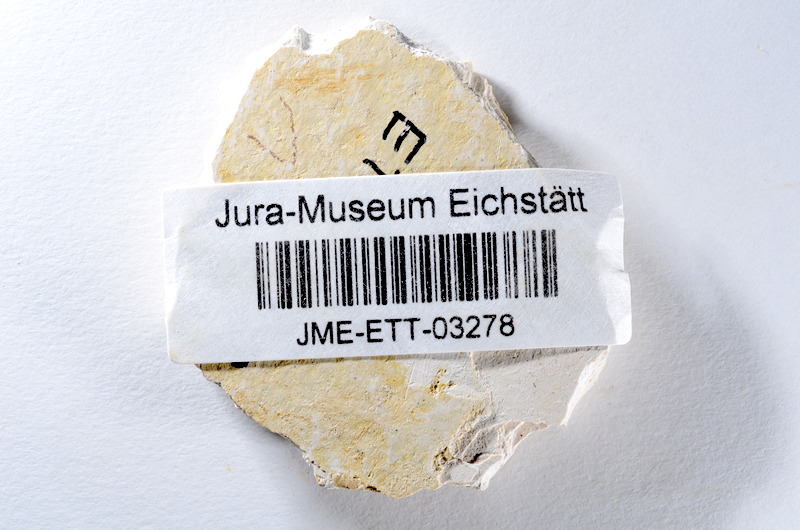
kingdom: Animalia
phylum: Chordata
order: Salmoniformes
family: Orthogonikleithridae
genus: Orthogonikleithrus
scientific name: Orthogonikleithrus hoelli
